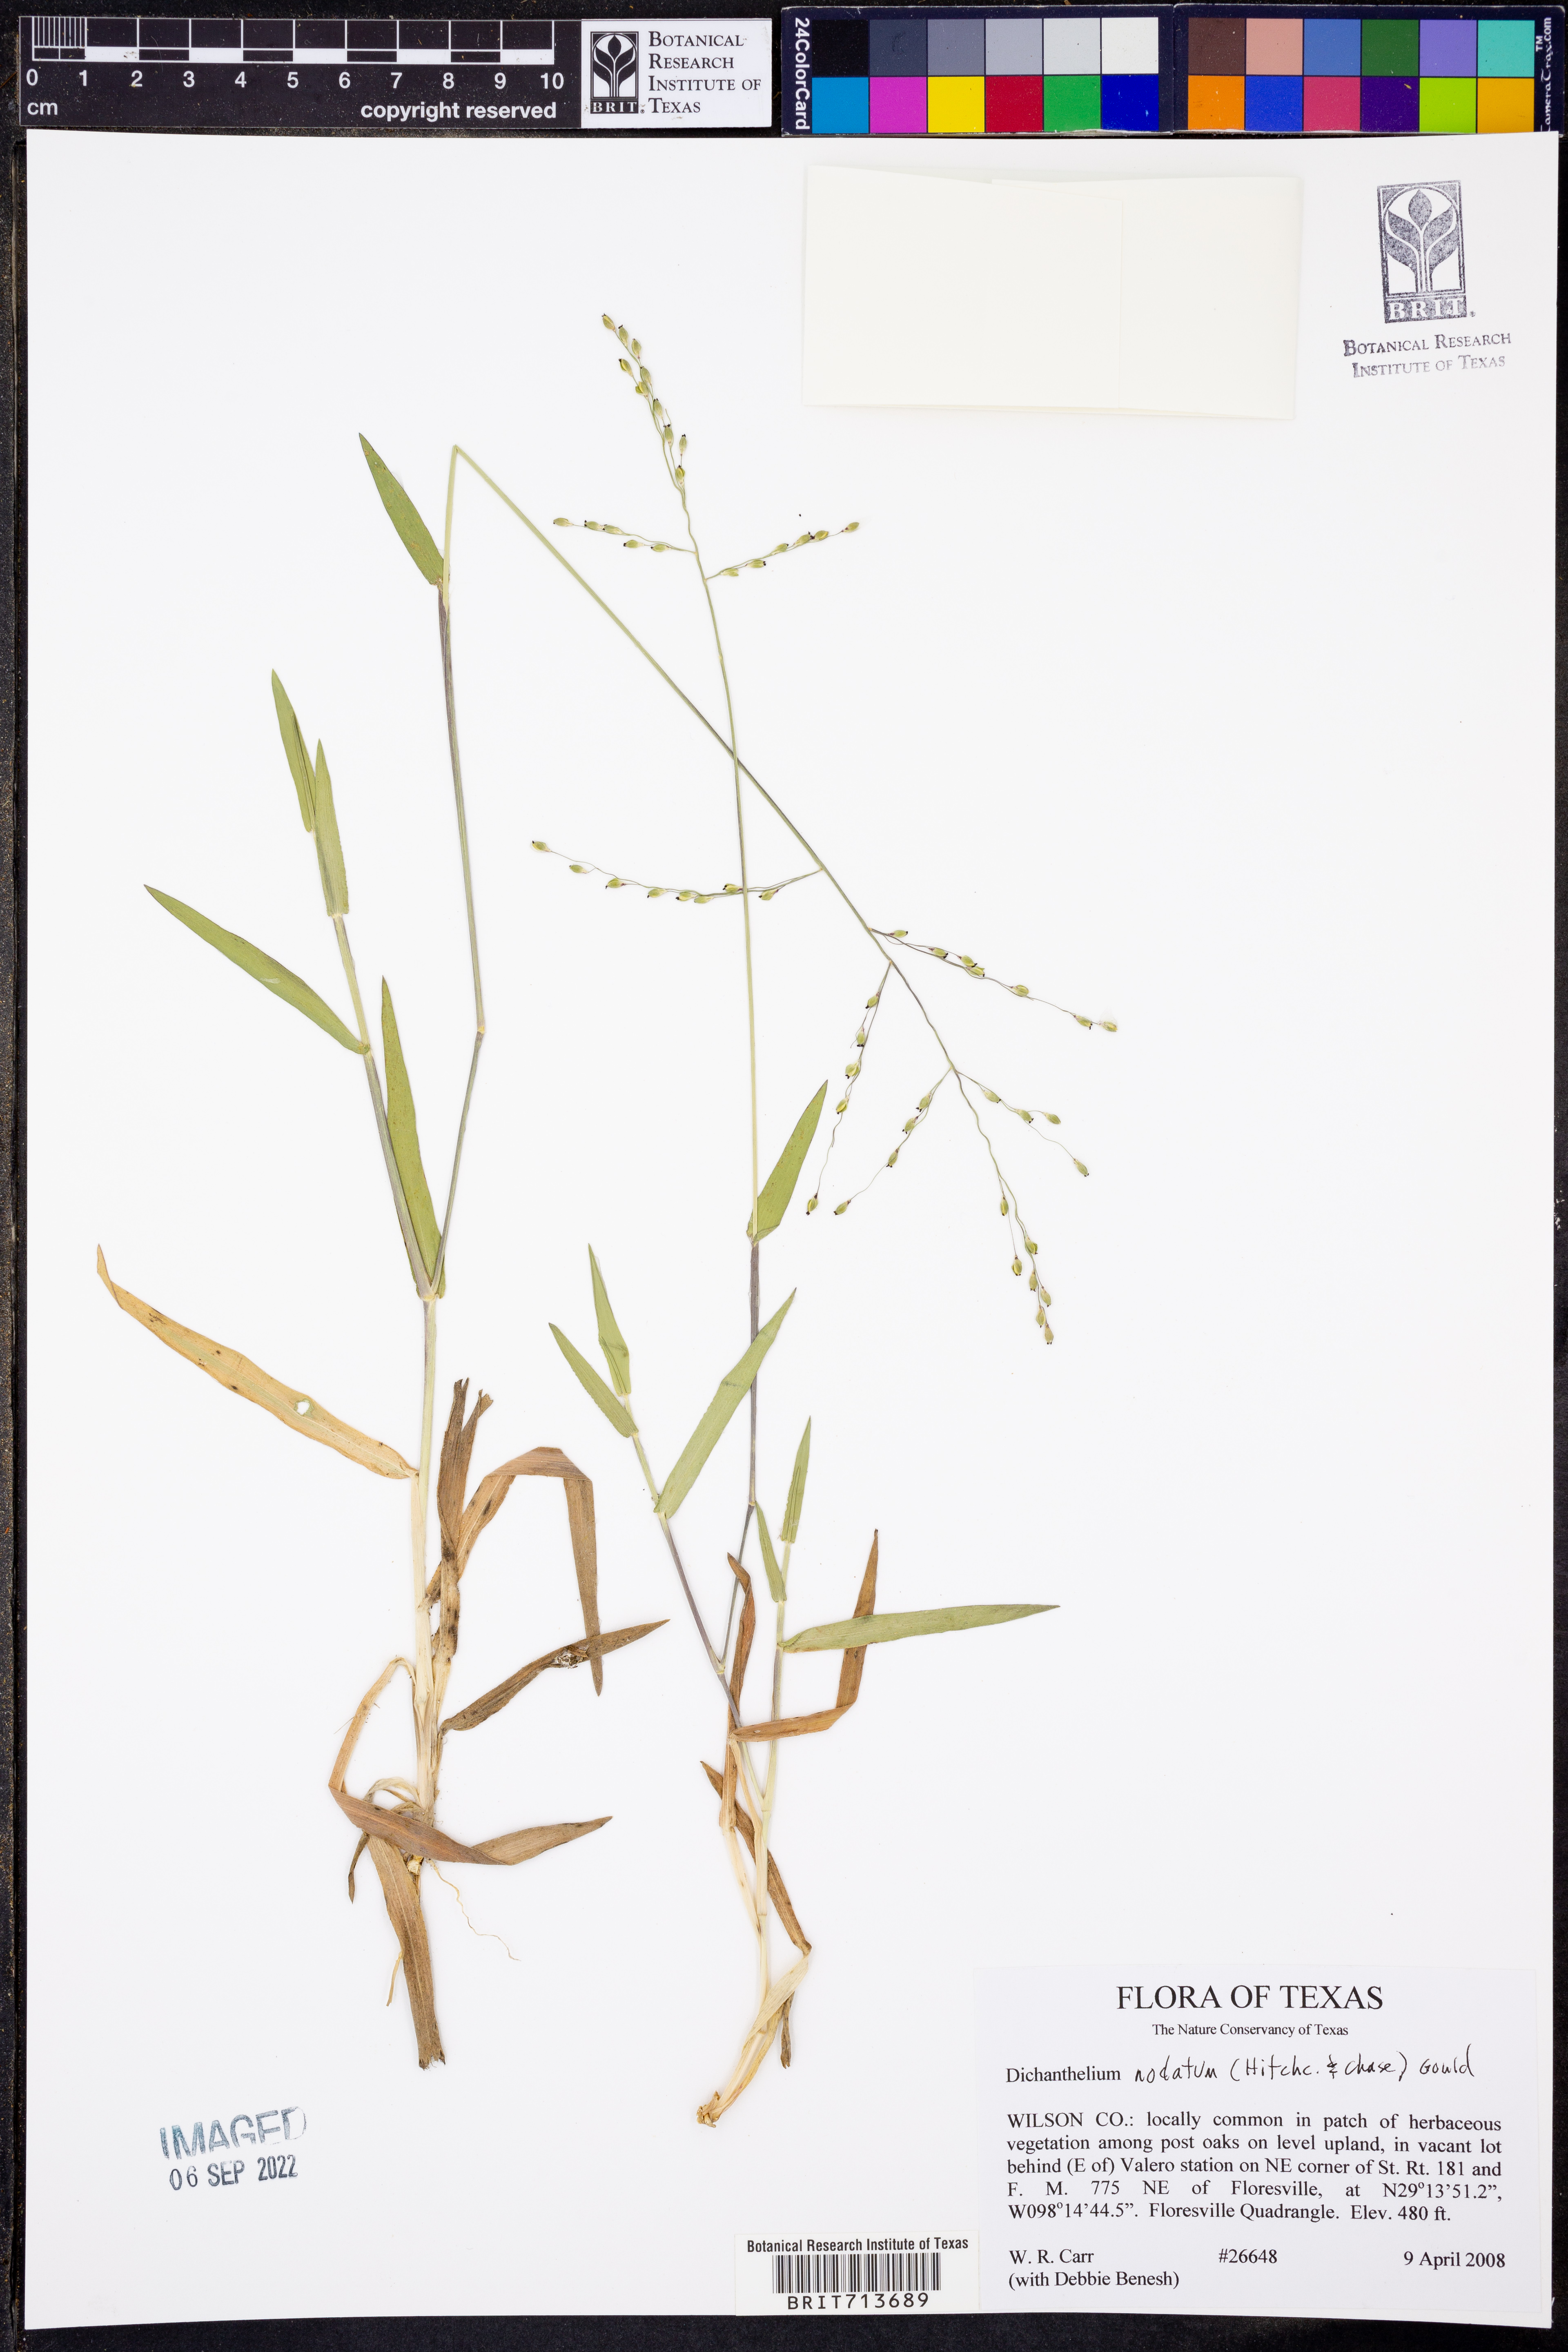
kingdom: Plantae
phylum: Tracheophyta
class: Liliopsida
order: Poales
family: Poaceae
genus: Dichanthelium
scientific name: Dichanthelium nodatum
